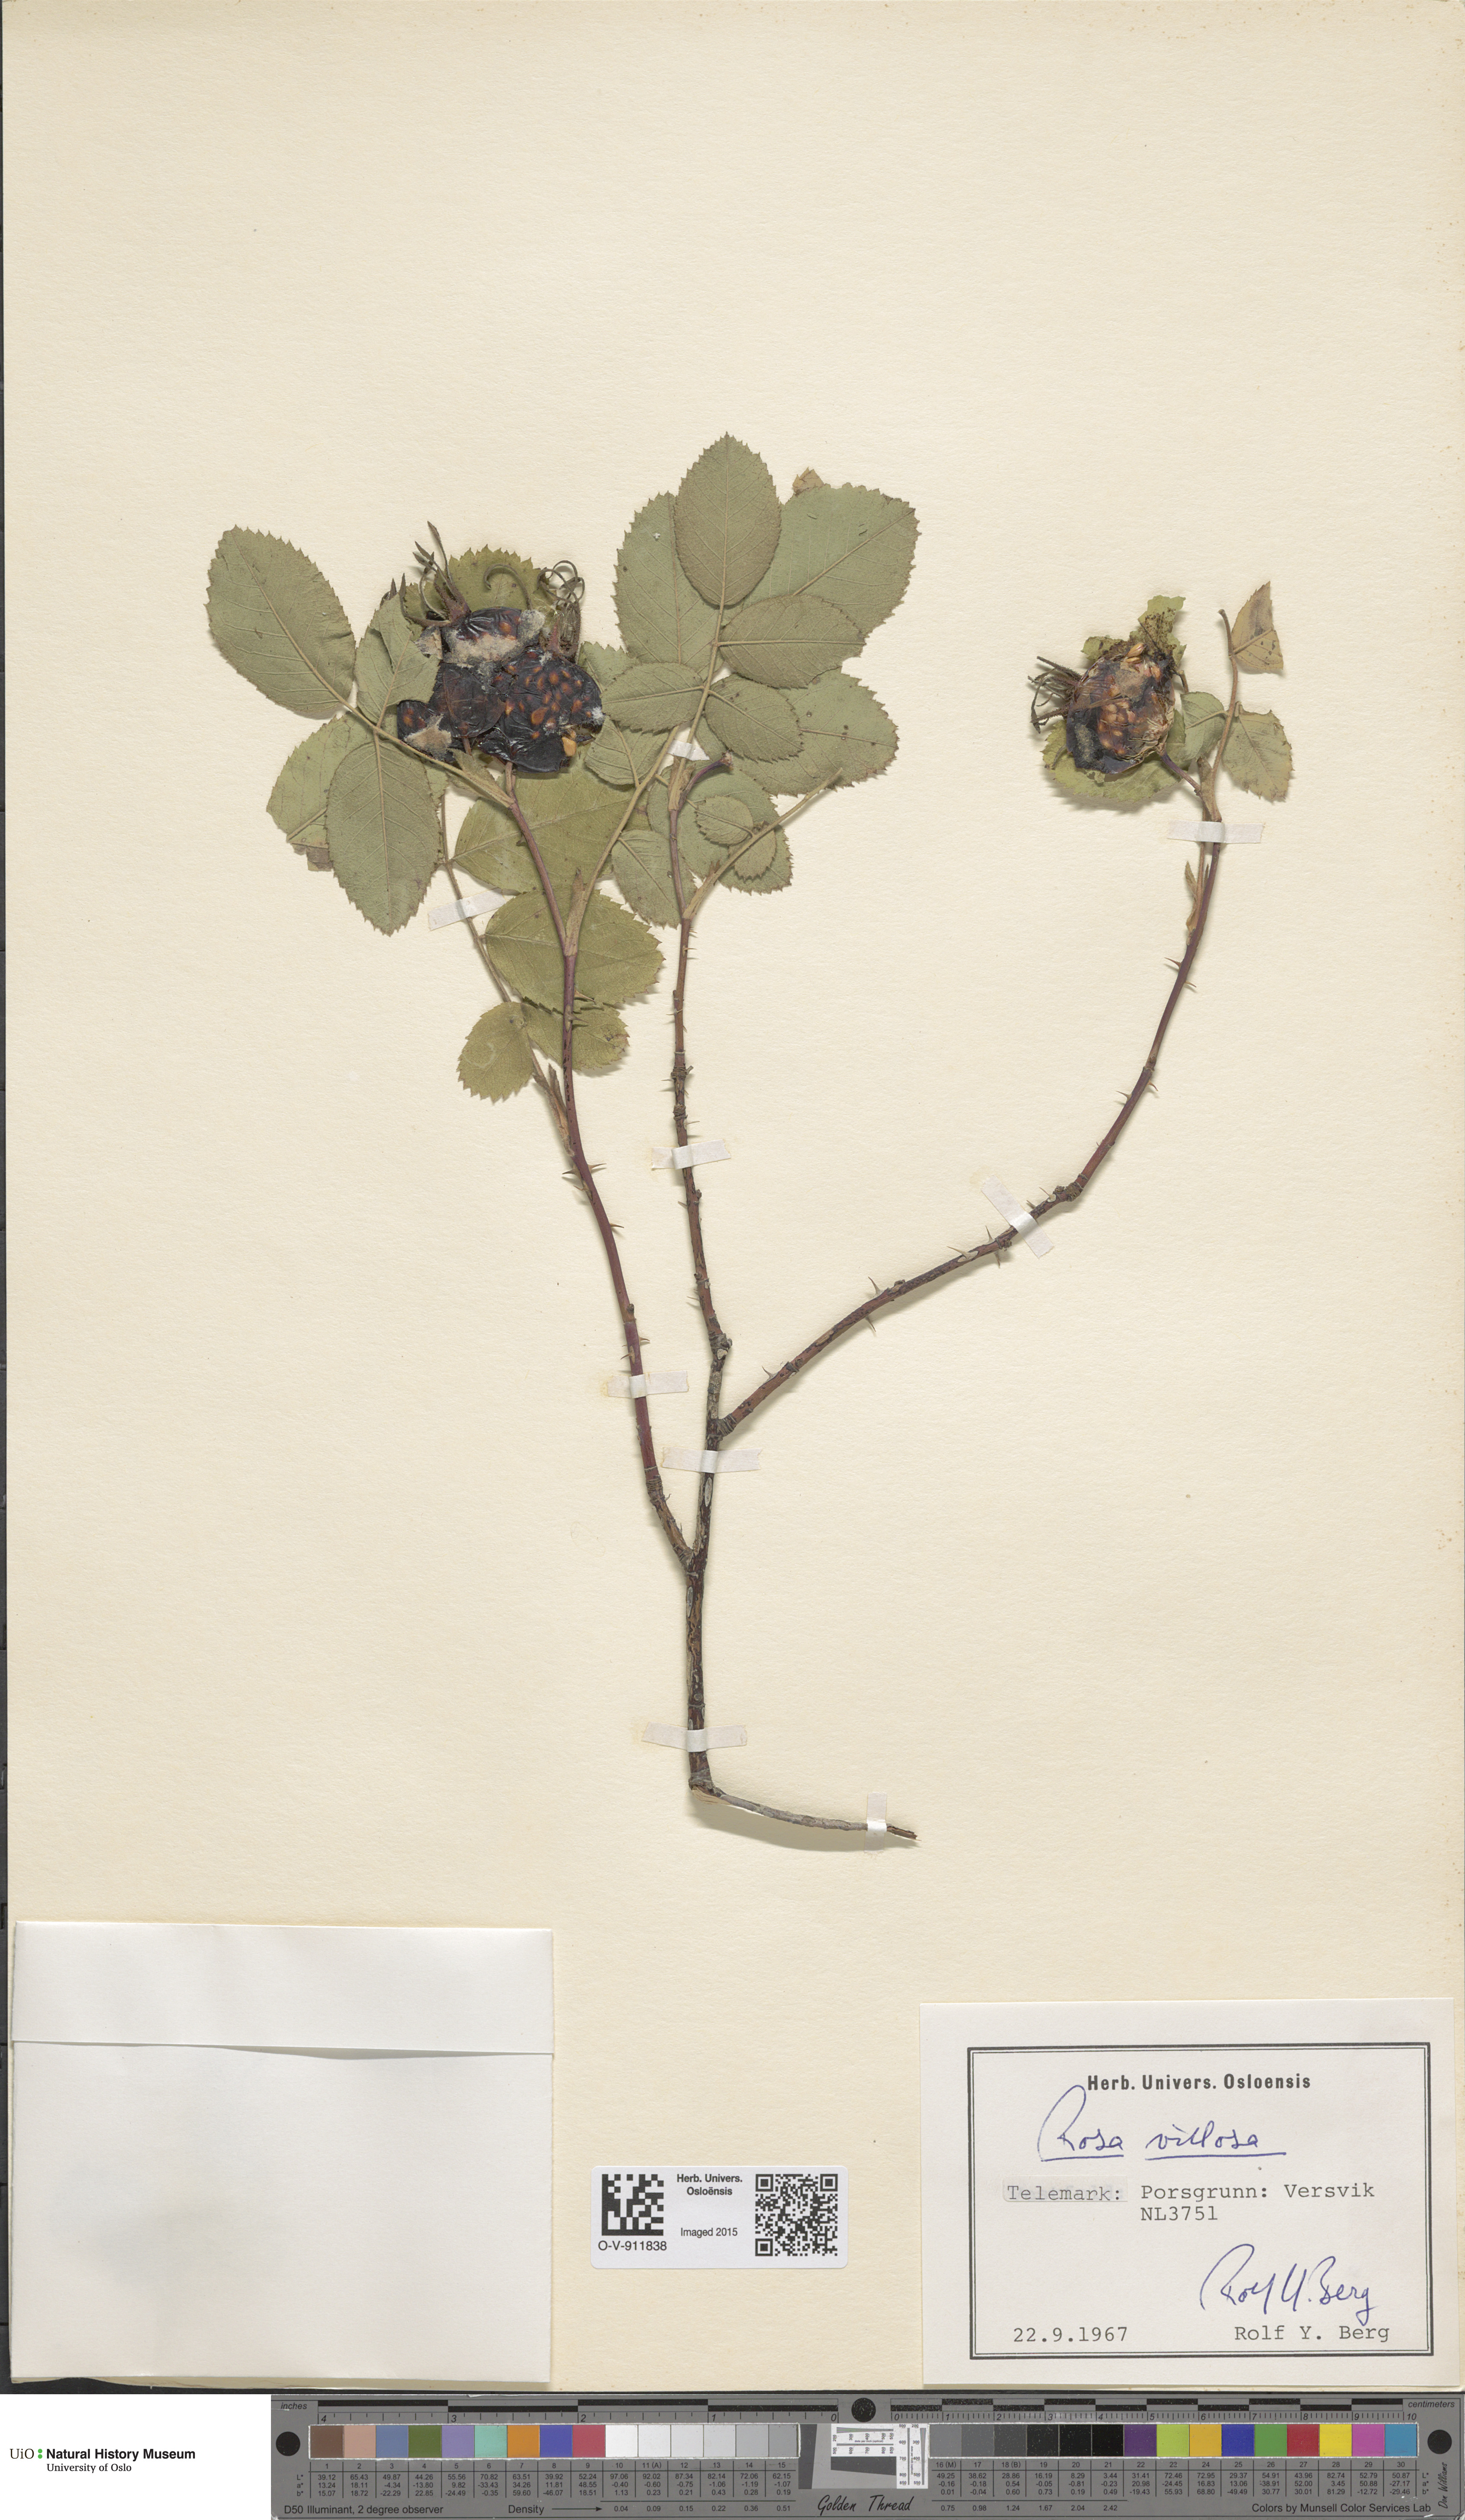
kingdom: Plantae
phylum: Tracheophyta
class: Magnoliopsida
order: Rosales
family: Rosaceae
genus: Rosa
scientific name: Rosa villosa
